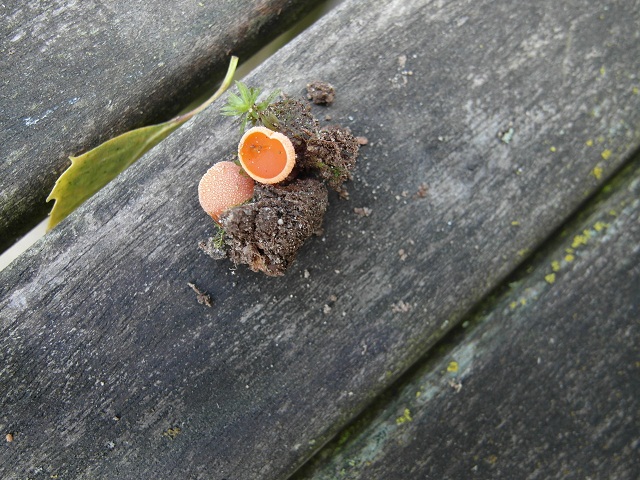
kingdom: Fungi
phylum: Ascomycota
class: Pezizomycetes
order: Pezizales
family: Pyronemataceae
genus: Aleuria
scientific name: Aleuria aurantia
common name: almindelig orangebæger
